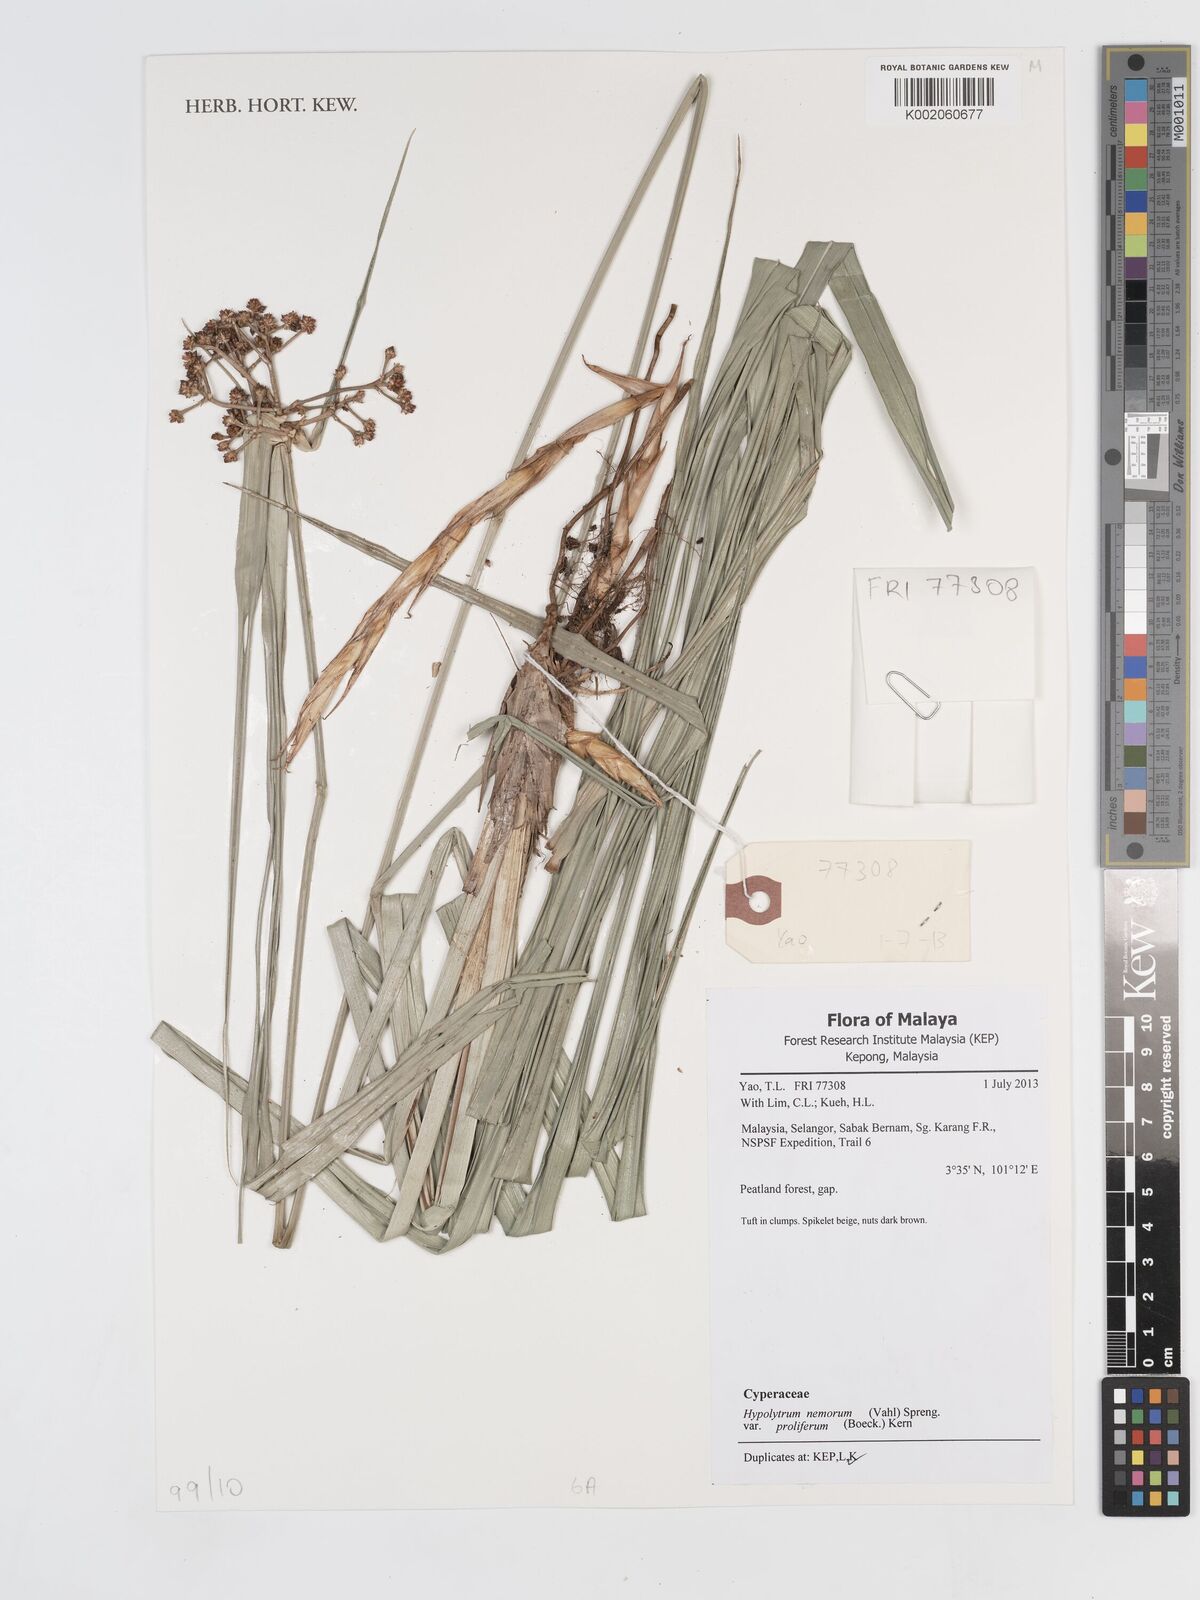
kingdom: Plantae
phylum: Tracheophyta
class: Liliopsida
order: Poales
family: Cyperaceae
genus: Hypolytrum
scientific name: Hypolytrum nemorum
